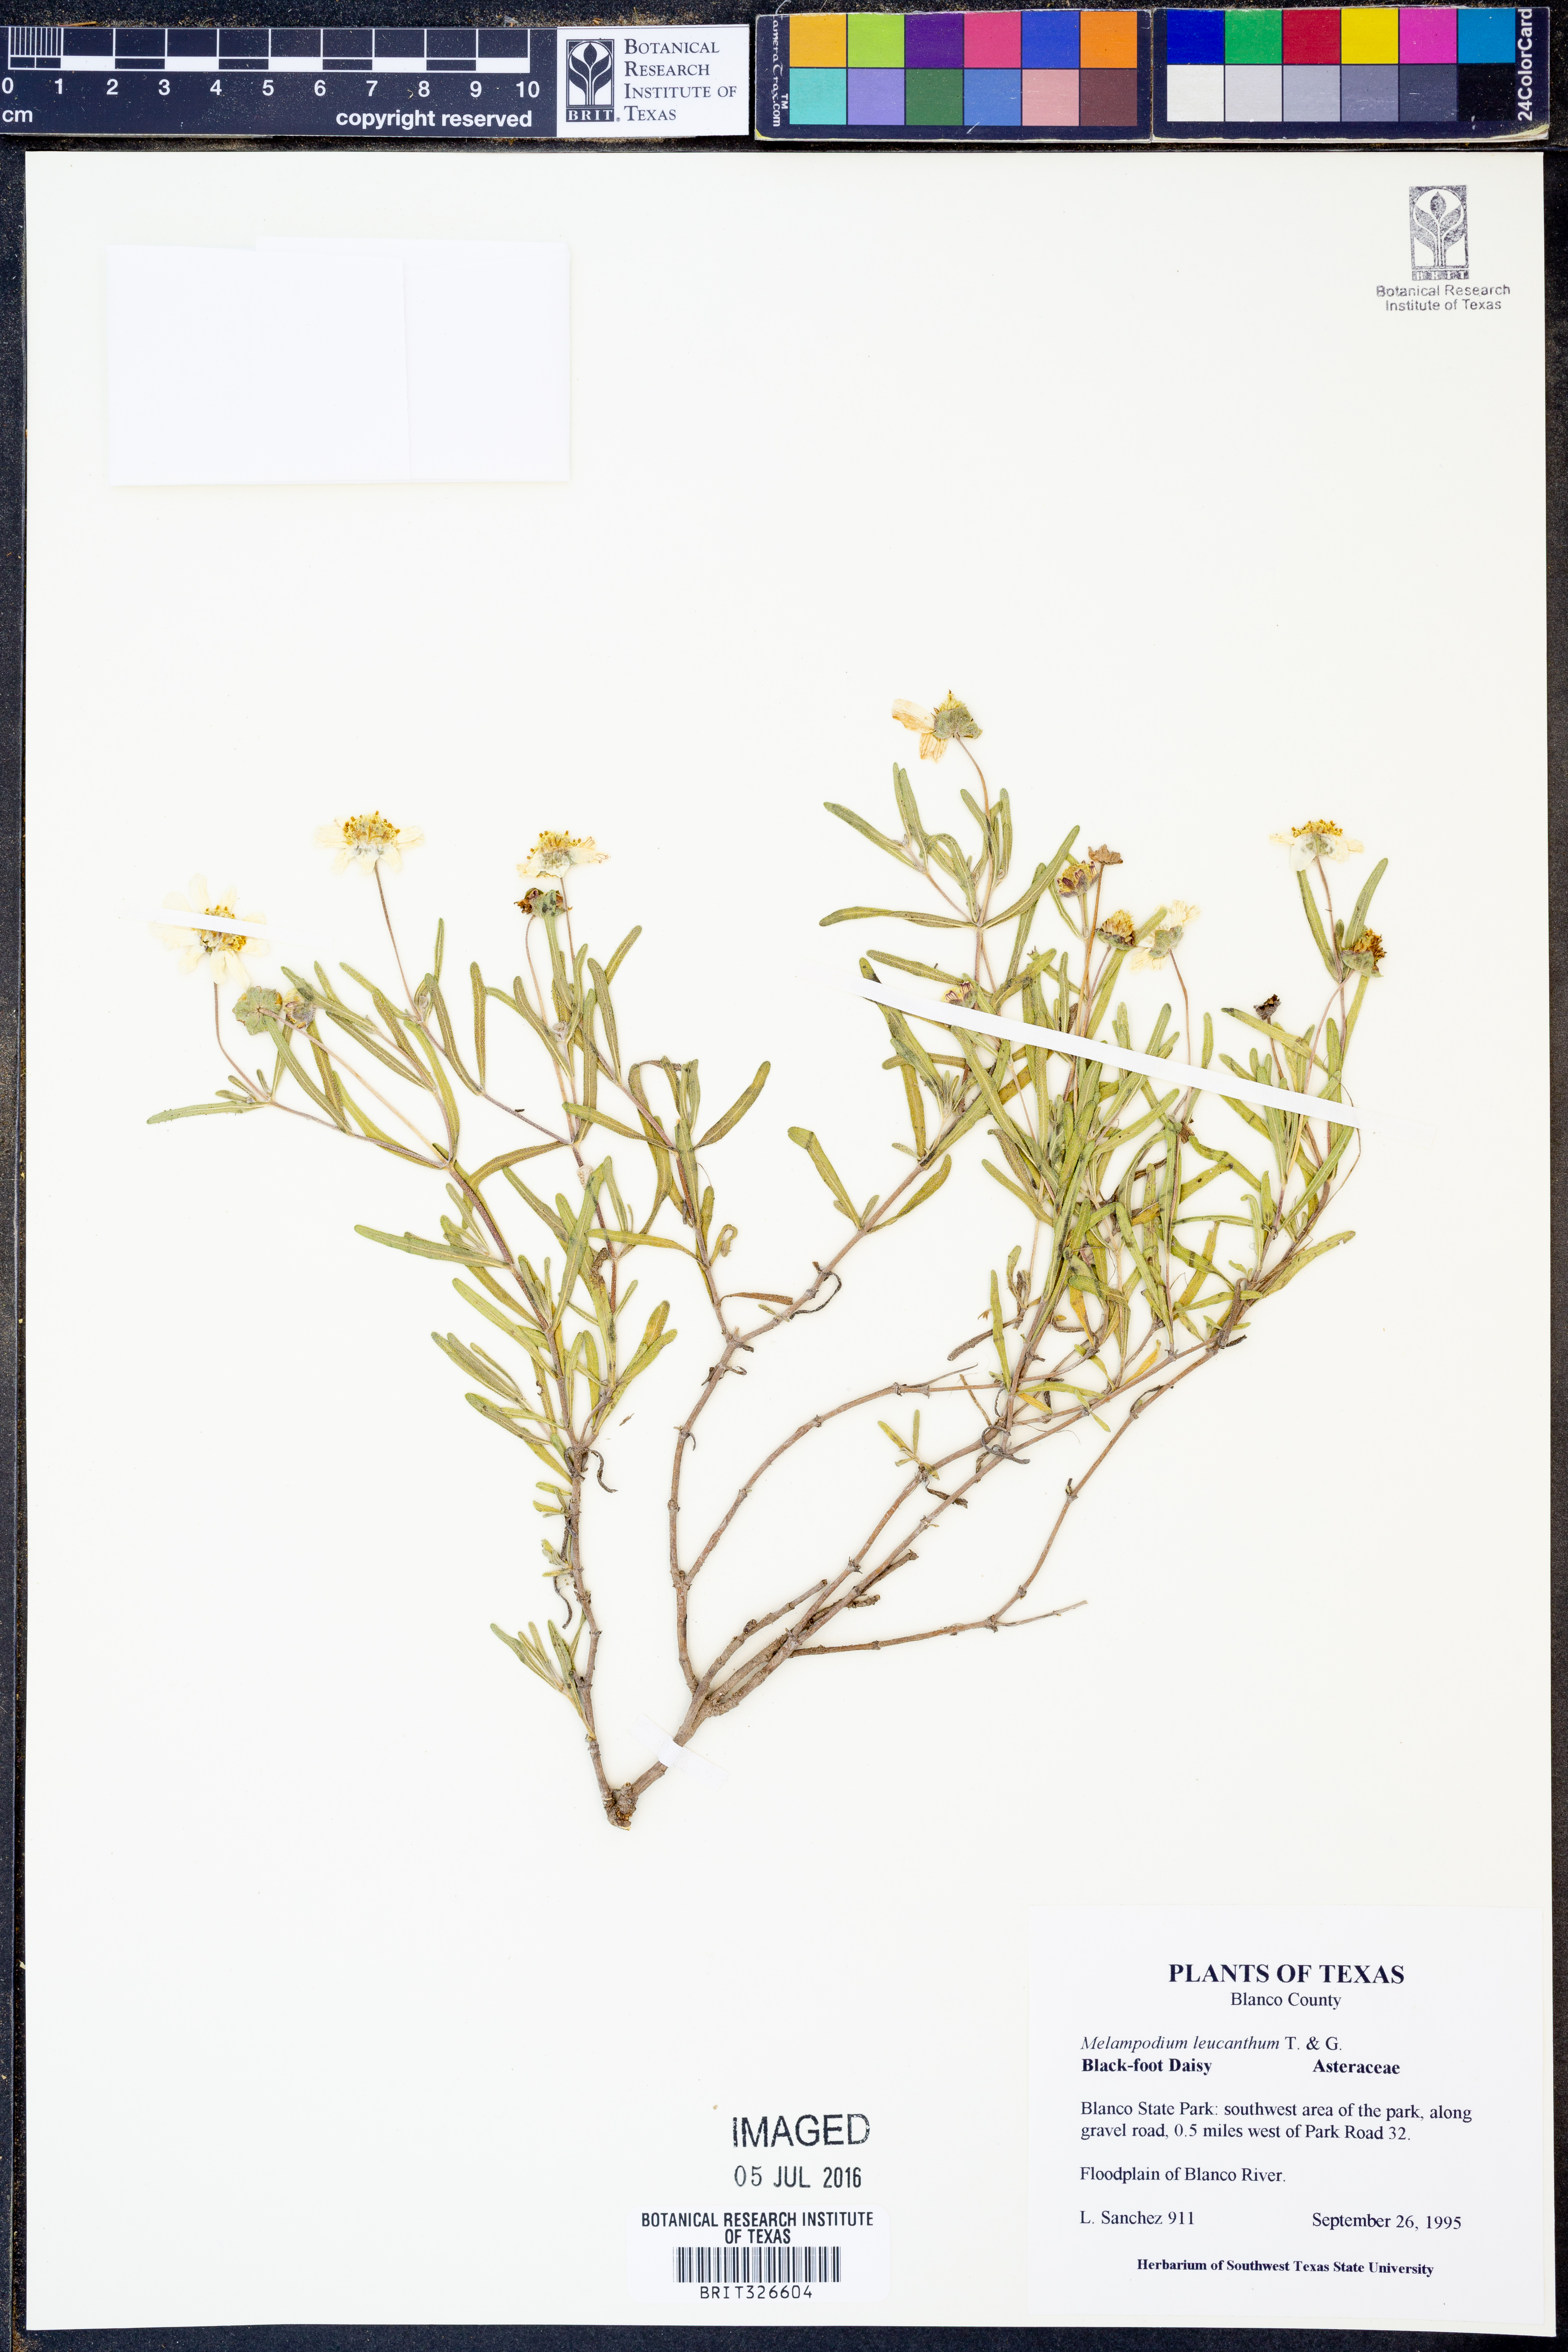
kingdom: Plantae
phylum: Tracheophyta
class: Magnoliopsida
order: Asterales
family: Asteraceae
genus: Melampodium
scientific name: Melampodium leucanthum
